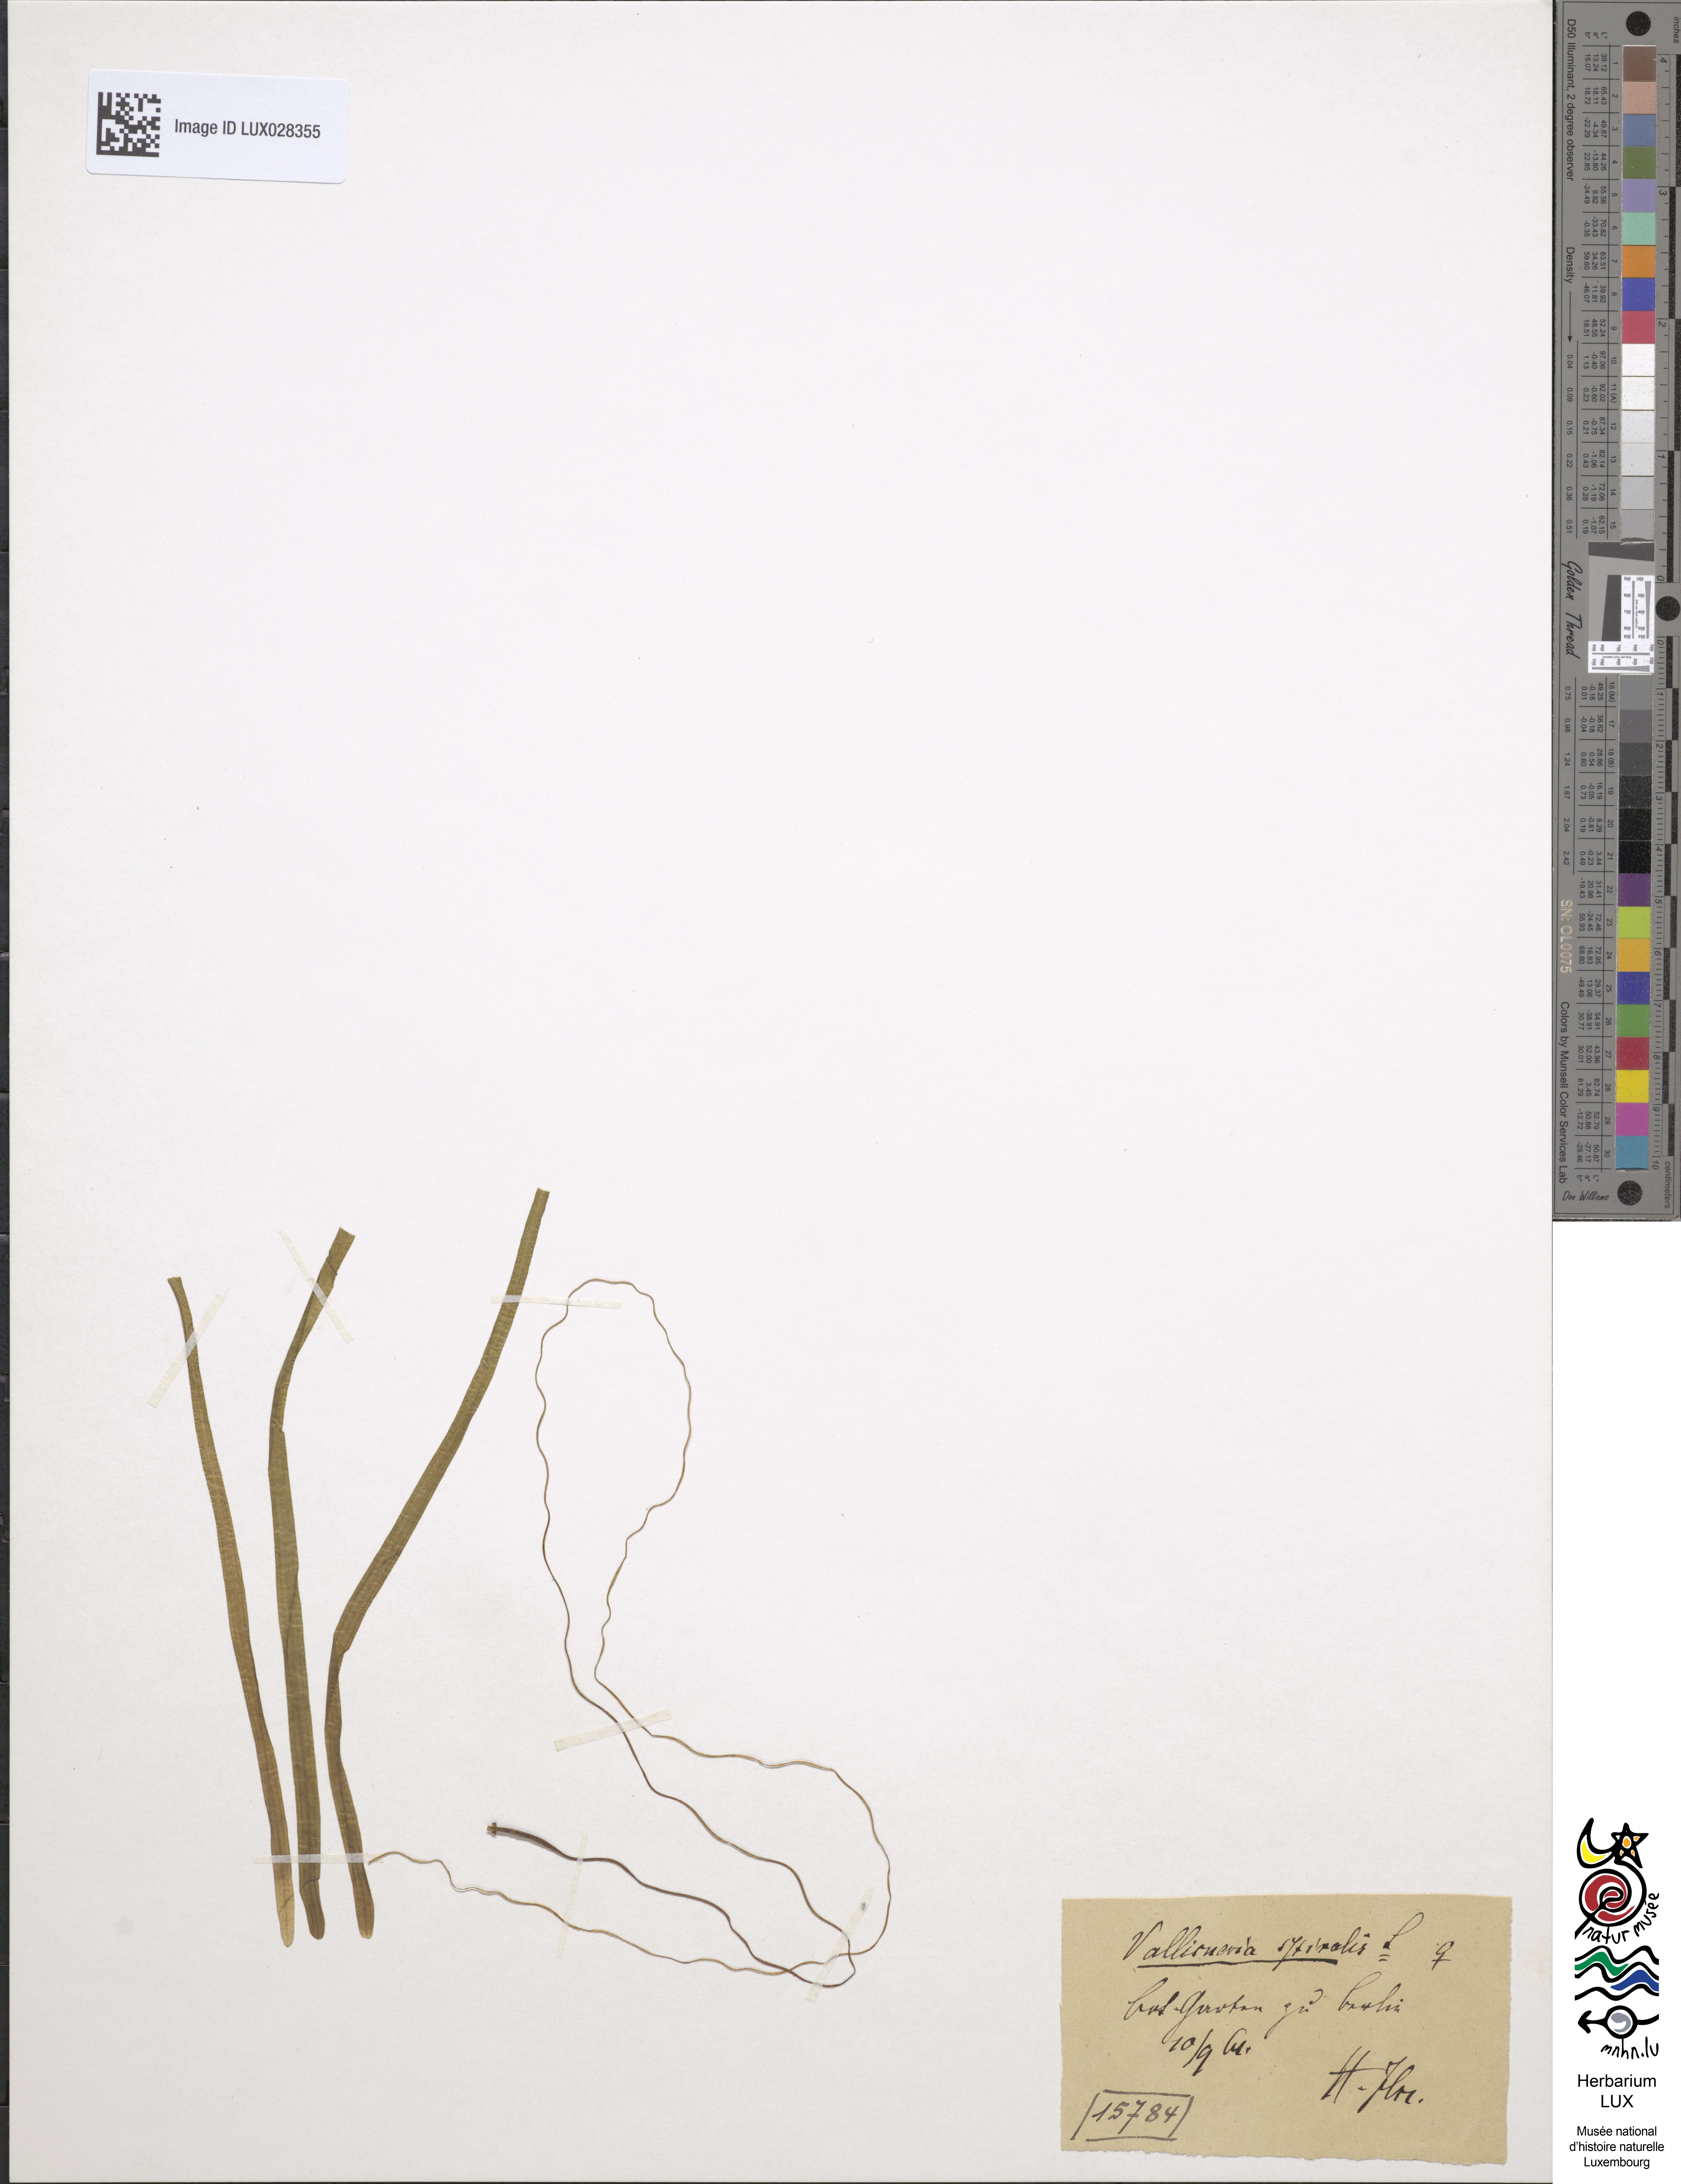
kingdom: Plantae
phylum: Tracheophyta
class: Liliopsida
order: Alismatales
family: Hydrocharitaceae
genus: Vallisneria
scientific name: Vallisneria spiralis
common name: Tapegrass
